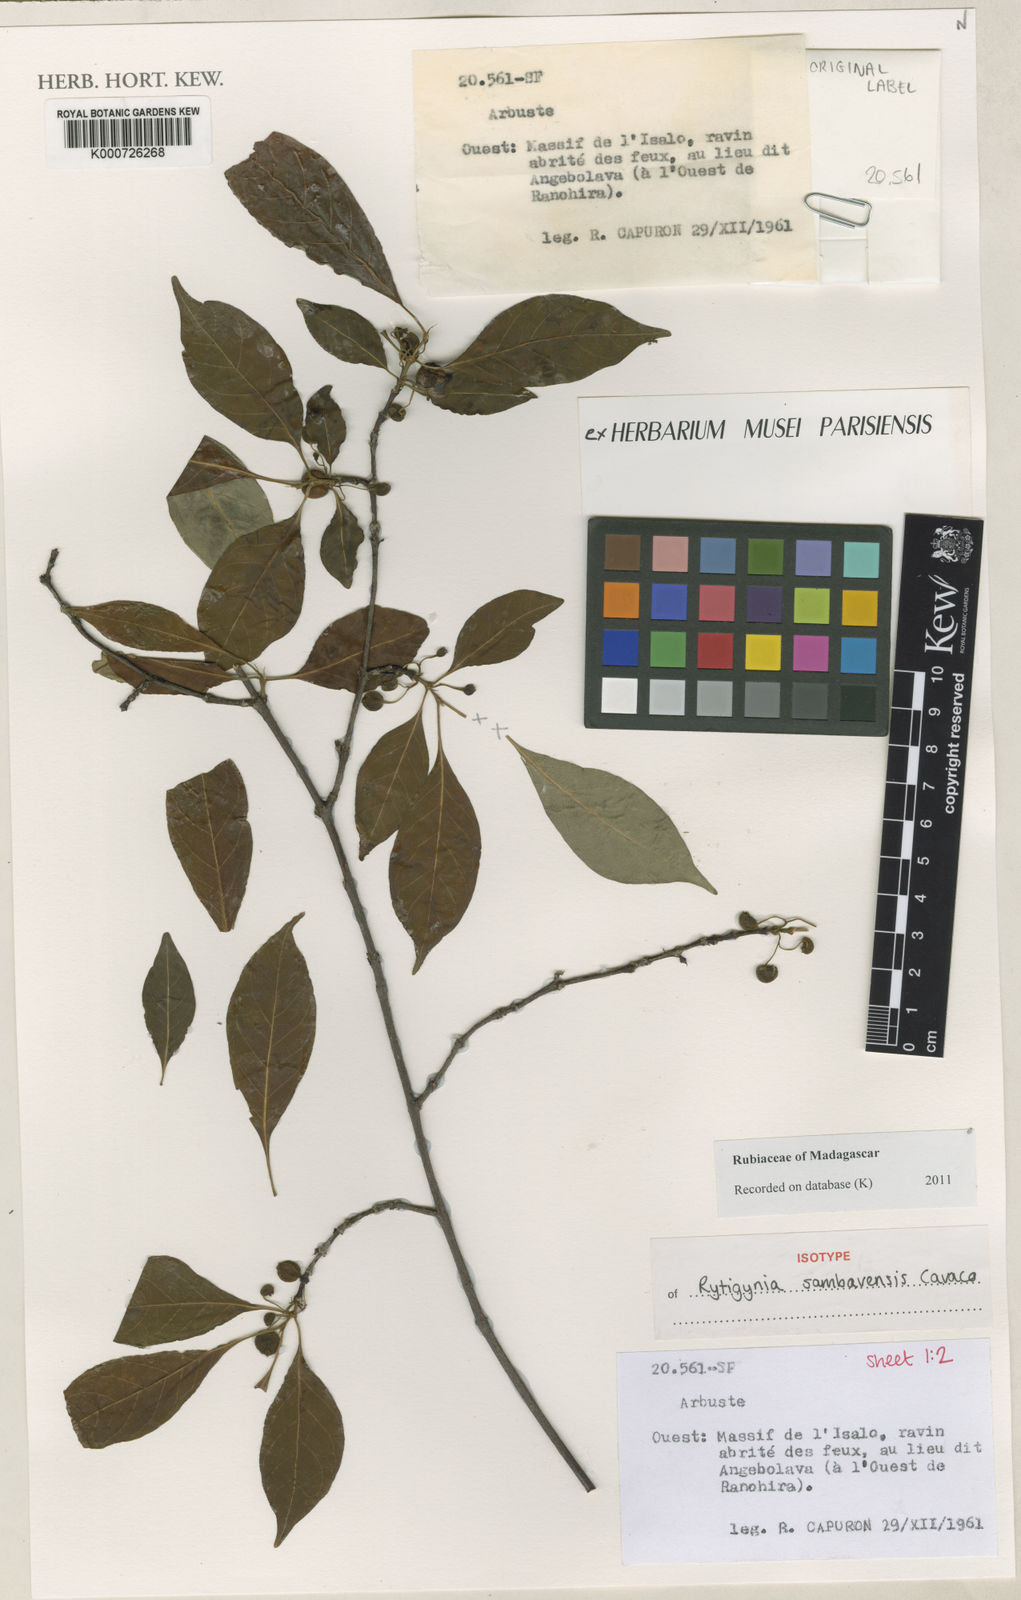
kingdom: Plantae
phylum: Tracheophyta
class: Magnoliopsida
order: Gentianales
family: Rubiaceae
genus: Rytigynia
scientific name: Rytigynia sambavensis
